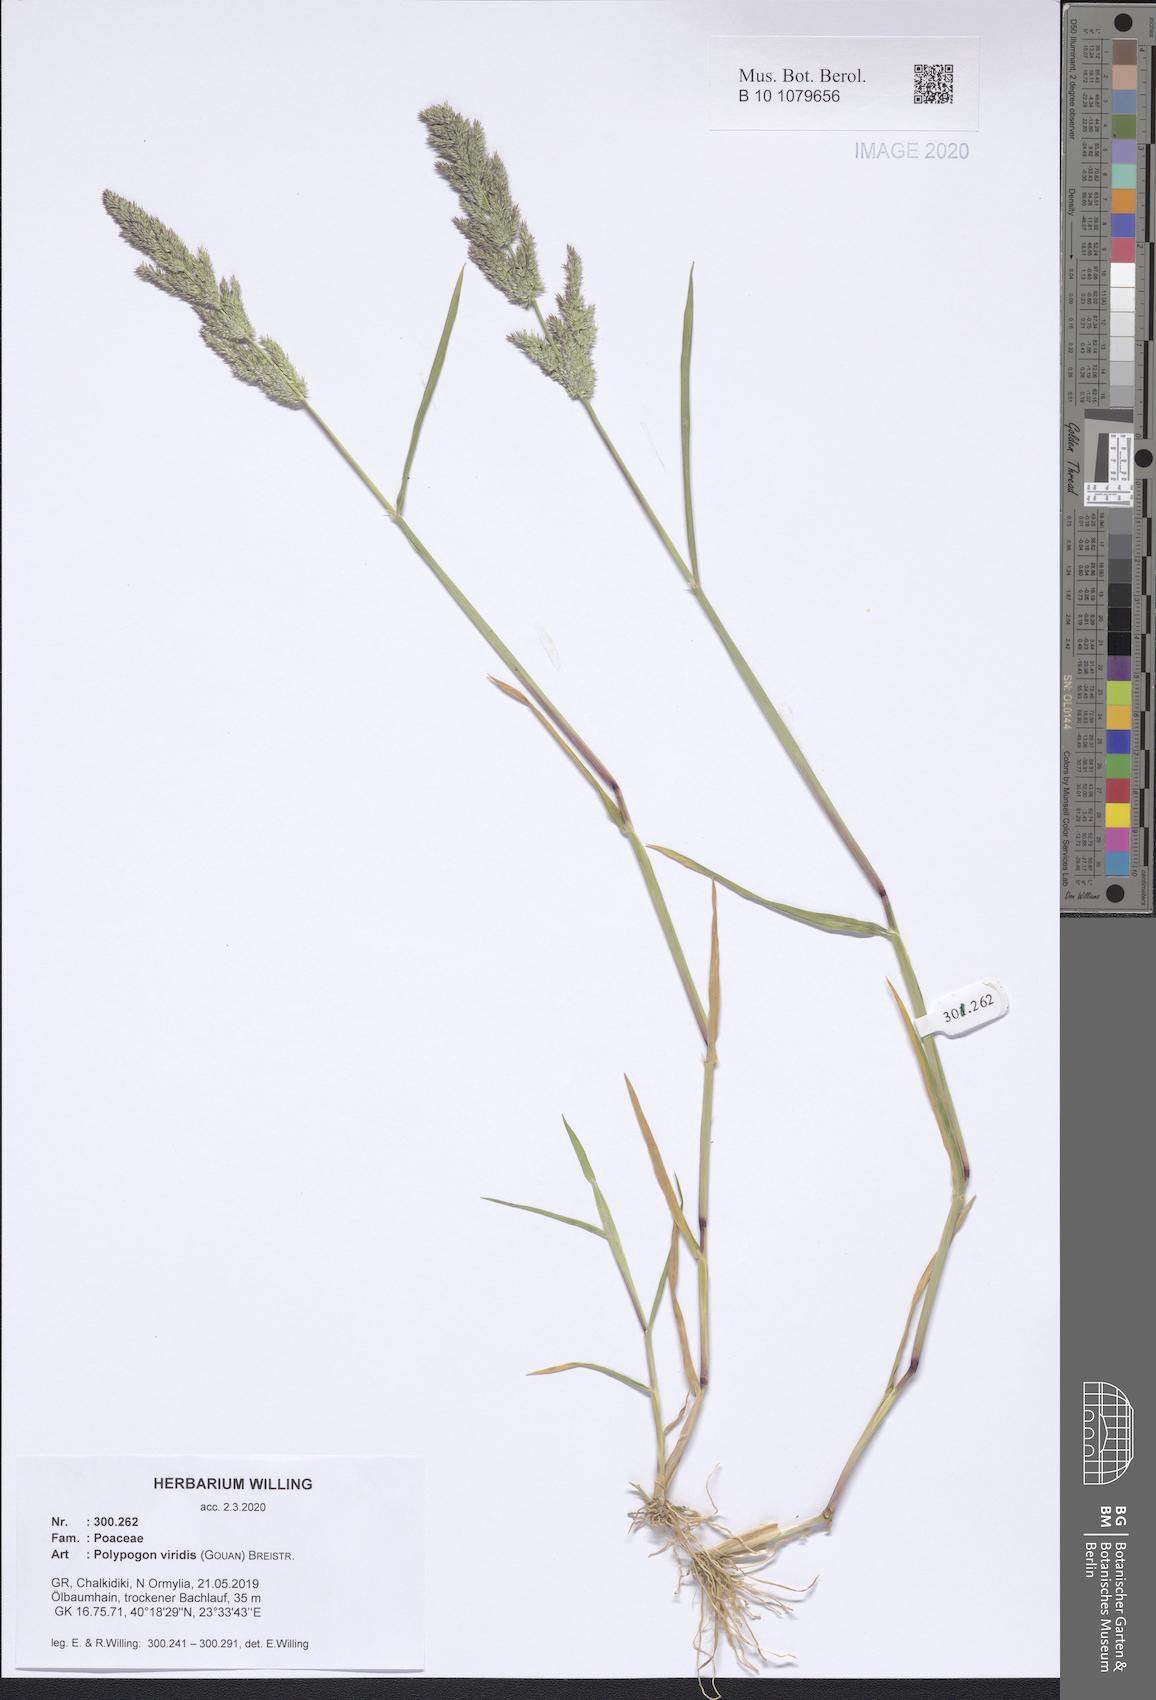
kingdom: Plantae
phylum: Tracheophyta
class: Liliopsida
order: Poales
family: Poaceae
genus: Polypogon
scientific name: Polypogon viridis
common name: Water bent
